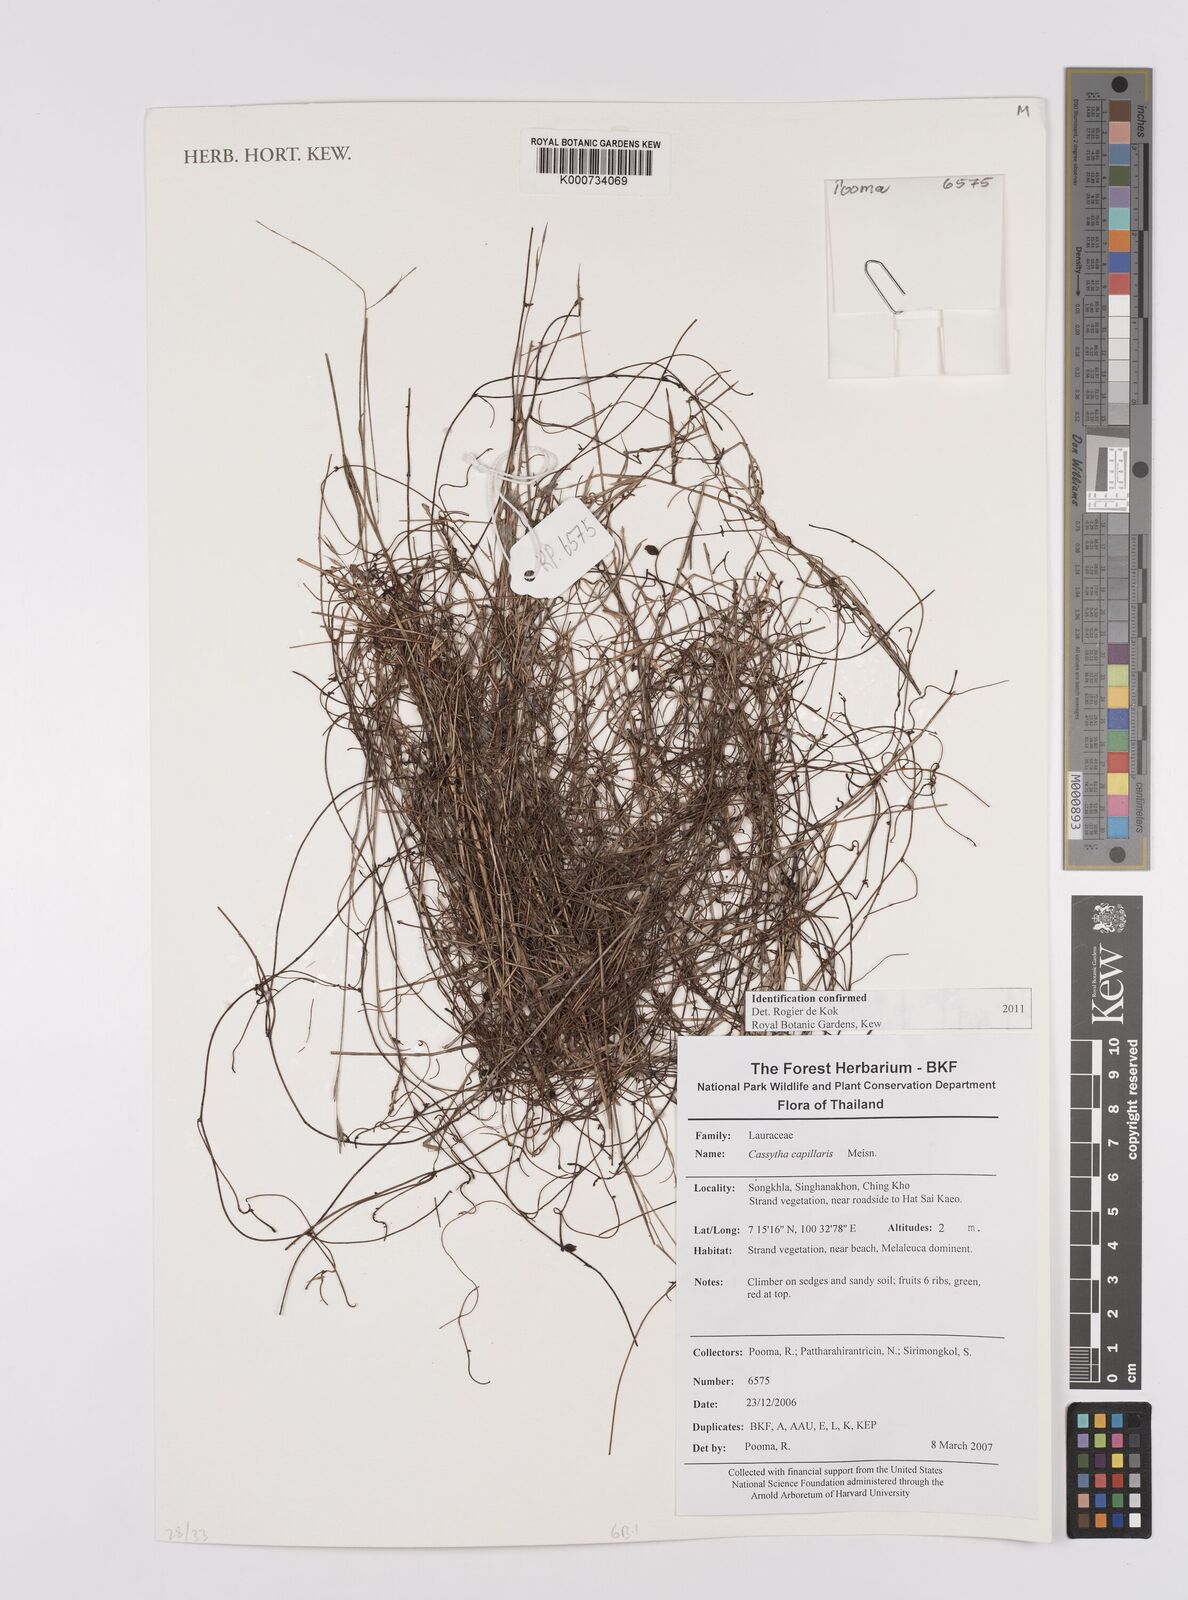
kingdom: Plantae
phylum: Tracheophyta
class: Magnoliopsida
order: Laurales
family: Lauraceae
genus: Cassytha
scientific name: Cassytha capillaris
